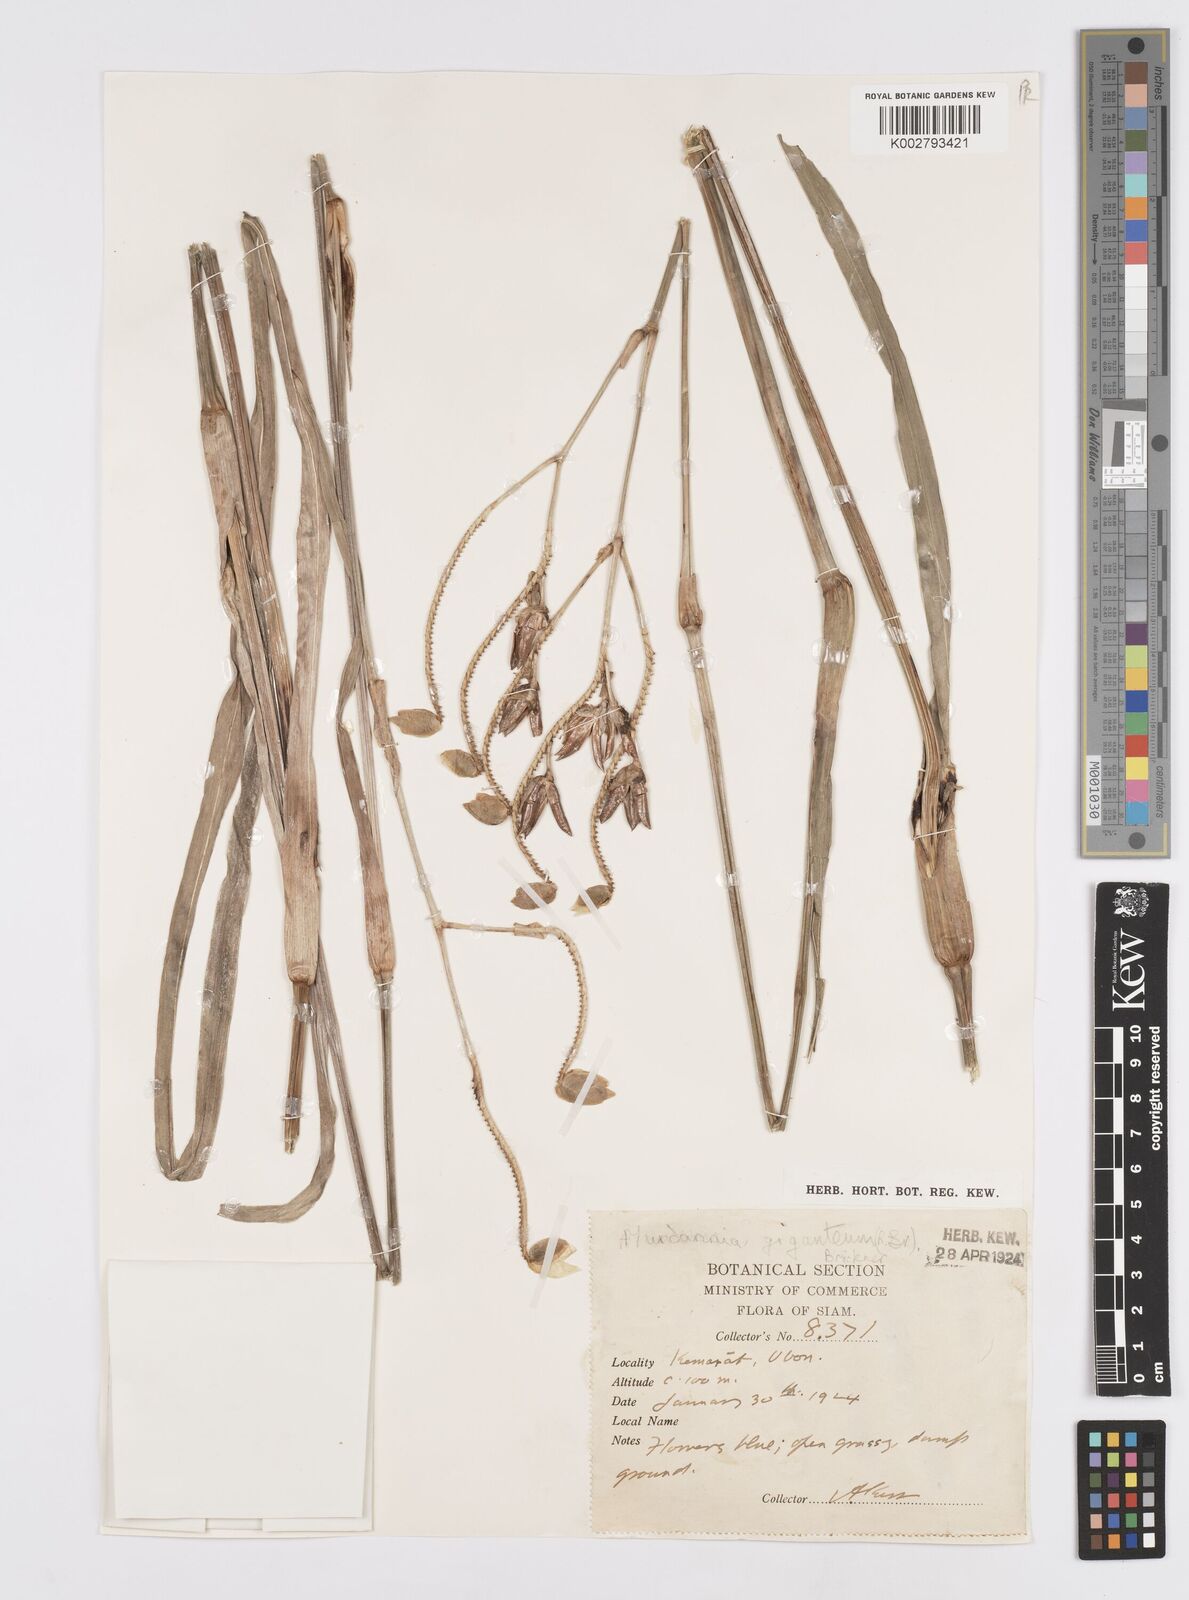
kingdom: Plantae
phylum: Tracheophyta
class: Liliopsida
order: Commelinales
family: Commelinaceae
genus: Murdannia
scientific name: Murdannia gigantea
